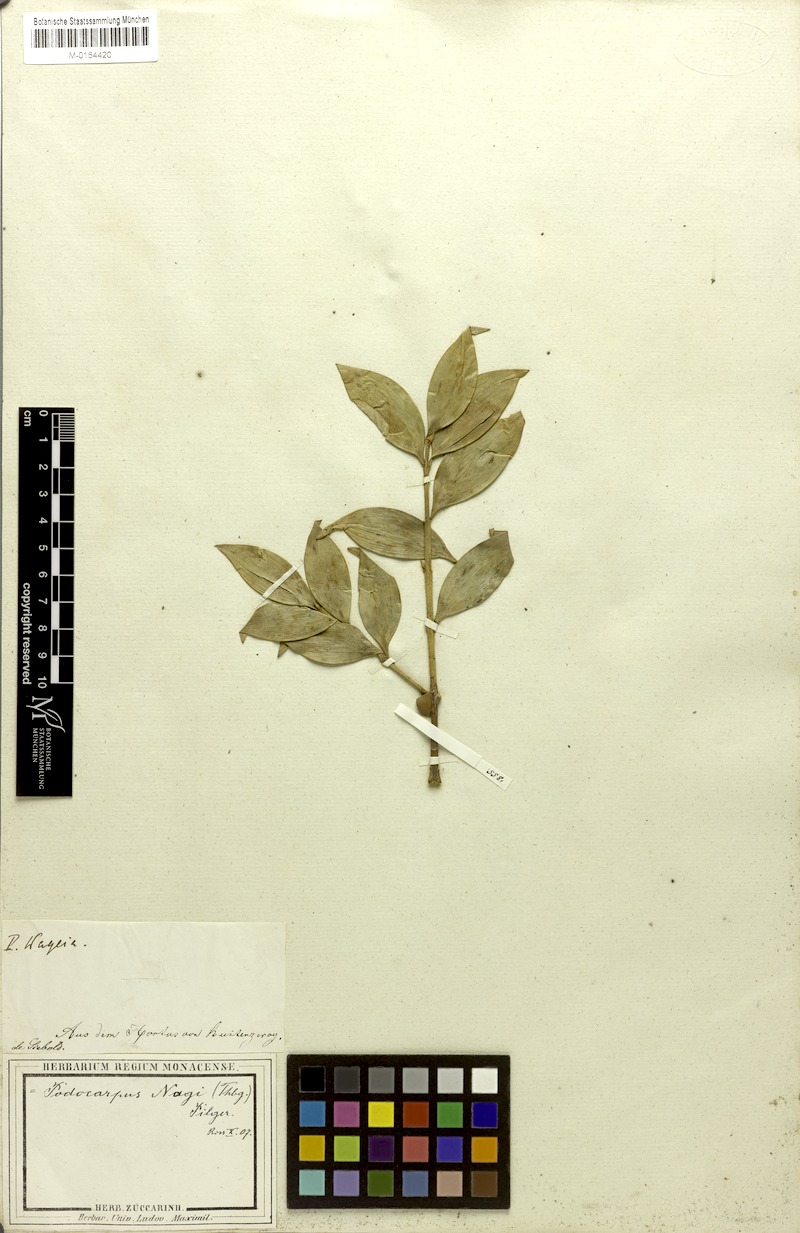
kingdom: Plantae
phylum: Tracheophyta
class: Pinopsida
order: Pinales
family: Podocarpaceae
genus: Nageia
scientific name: Nageia nagi
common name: Kaphal
